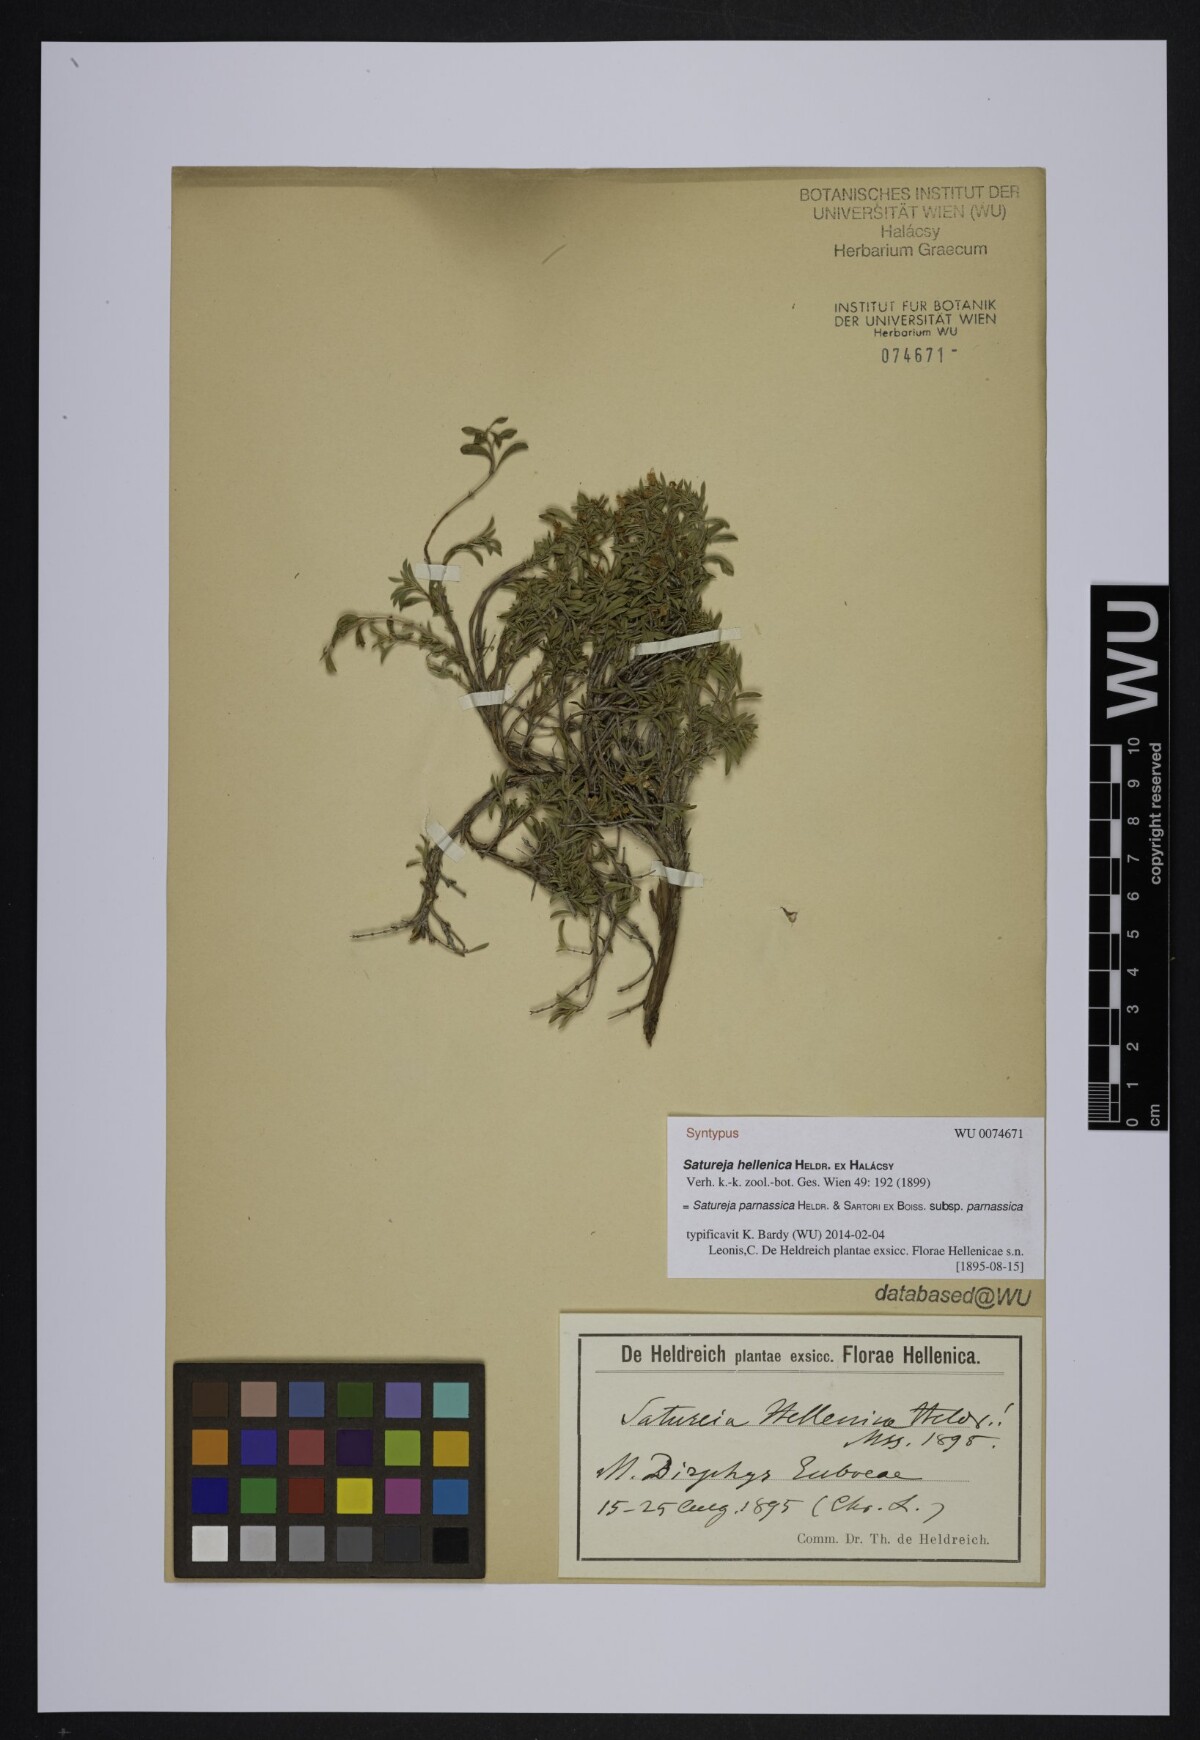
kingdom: Plantae
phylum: Tracheophyta
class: Magnoliopsida
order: Lamiales
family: Lamiaceae
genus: Satureja
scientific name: Satureja hellenica
